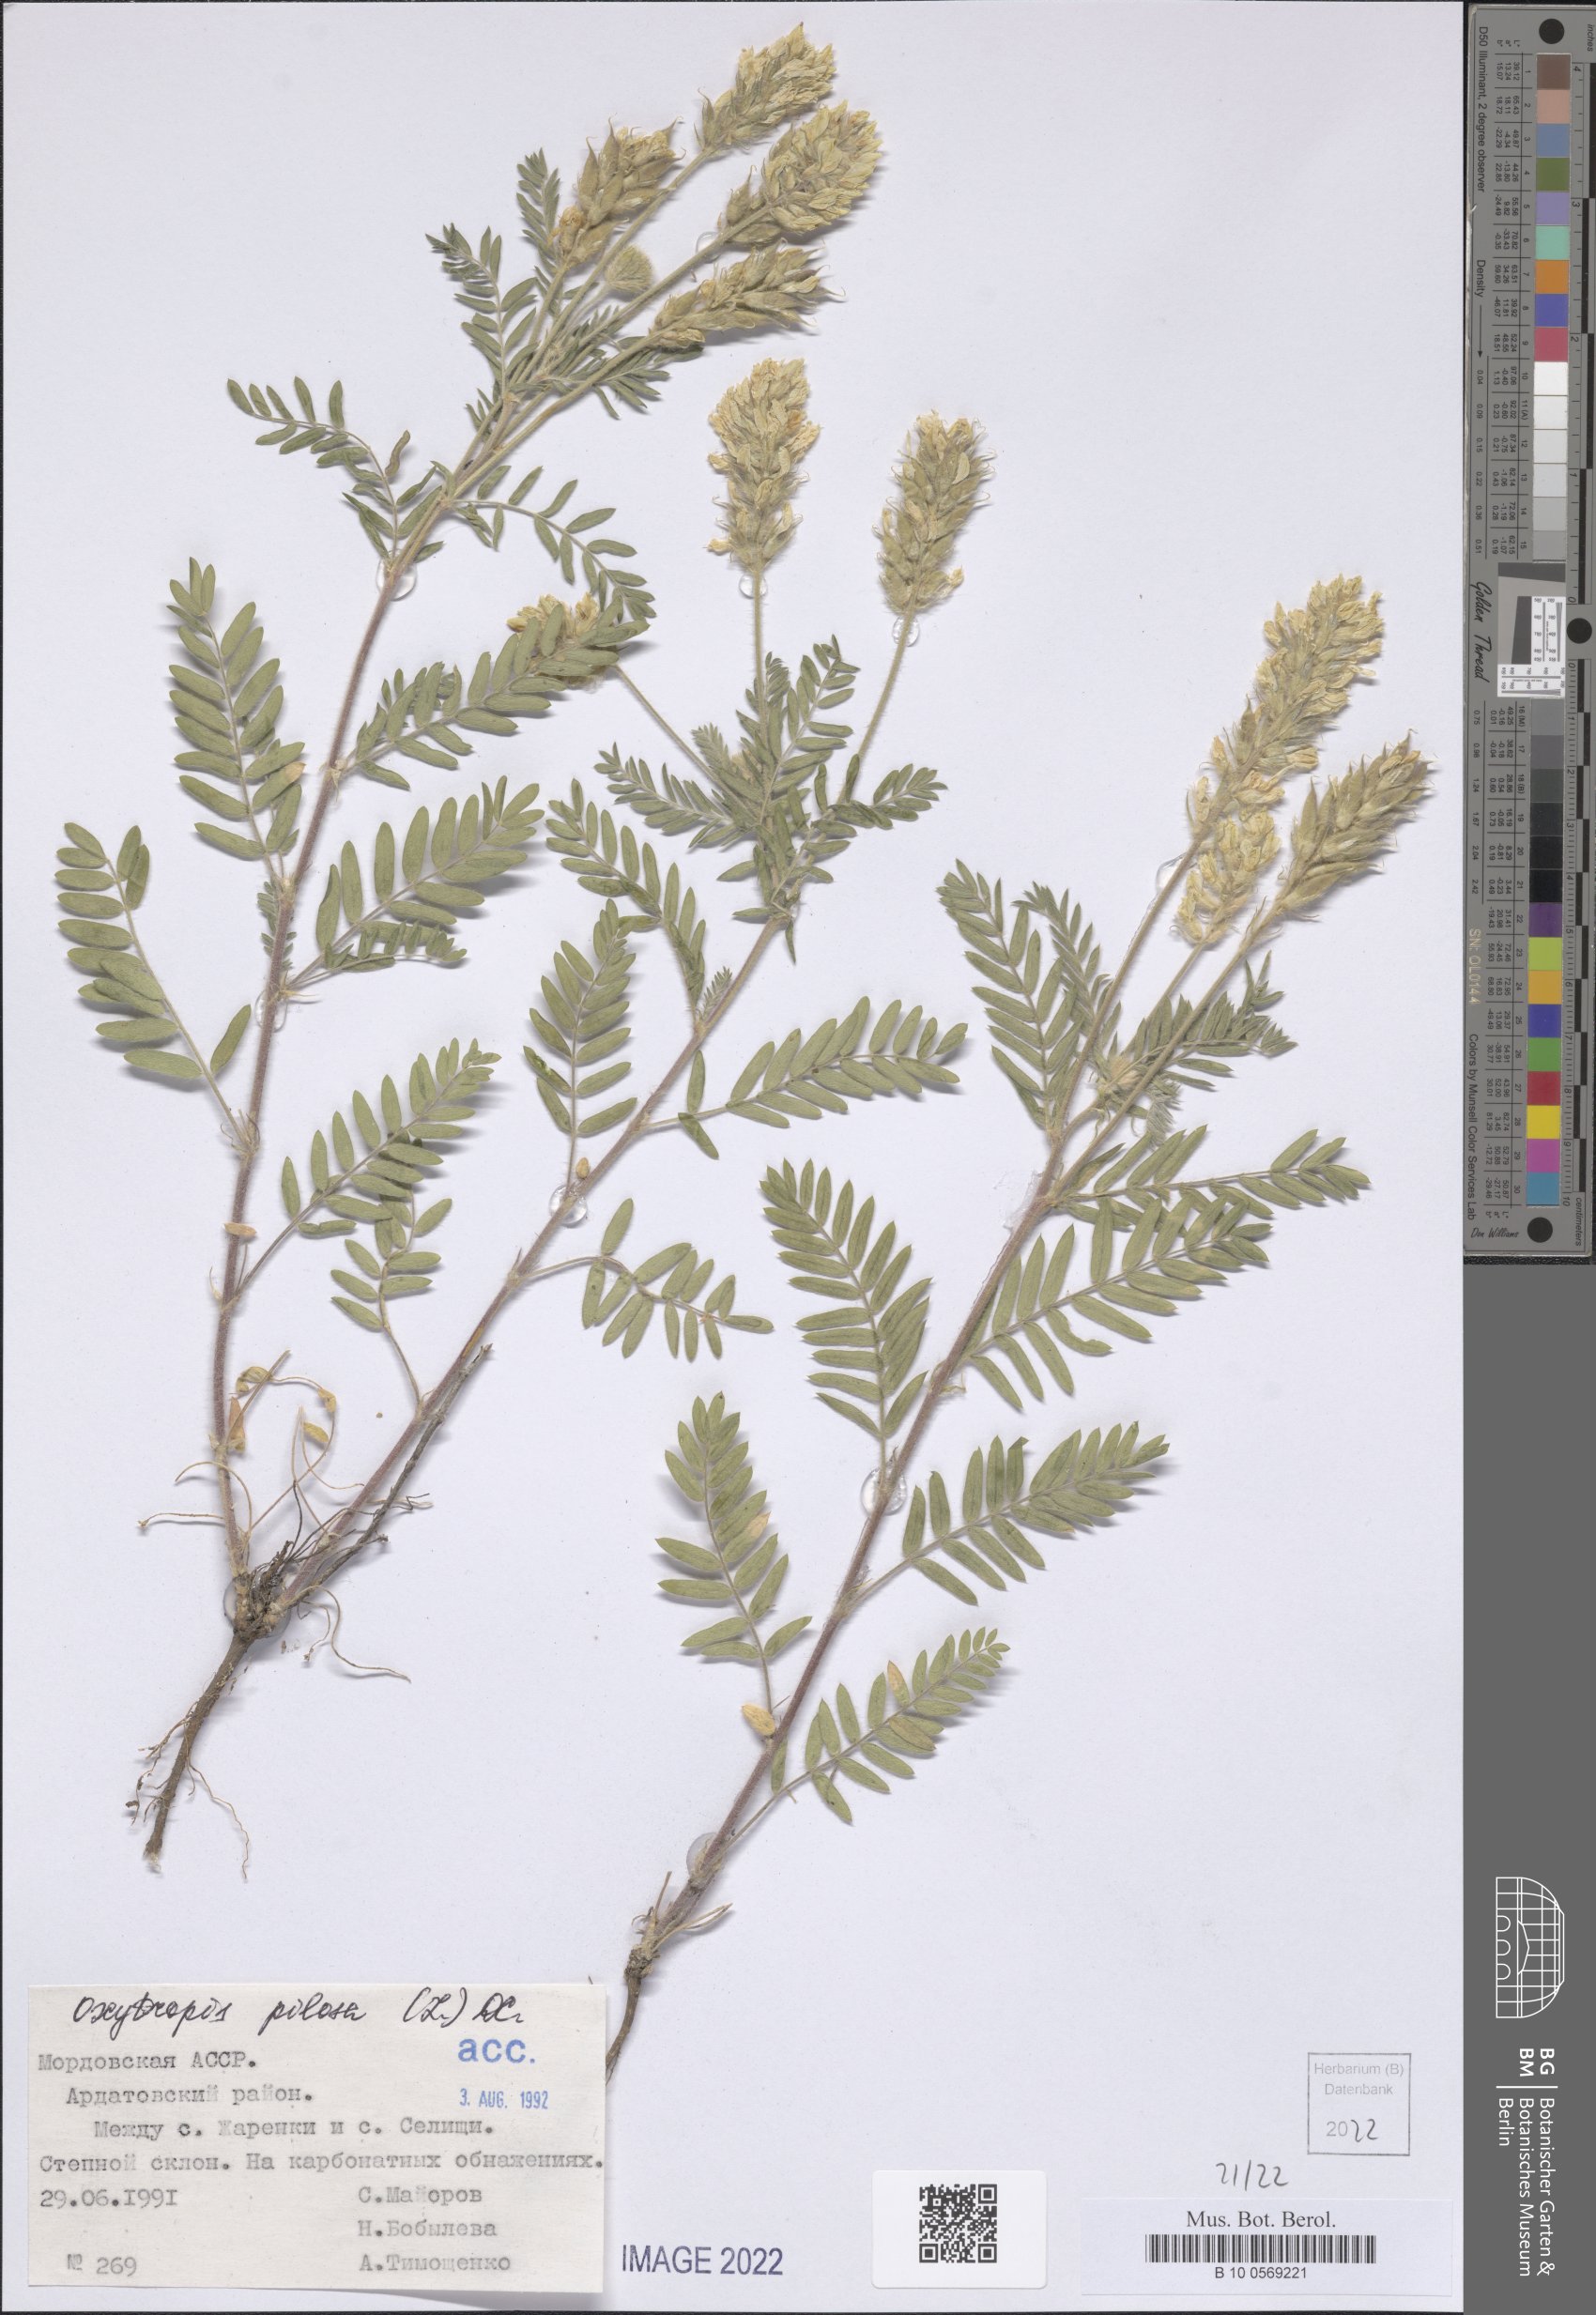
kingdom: Plantae
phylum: Tracheophyta
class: Magnoliopsida
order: Fabales
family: Fabaceae
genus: Oxytropis
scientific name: Oxytropis pilosa
